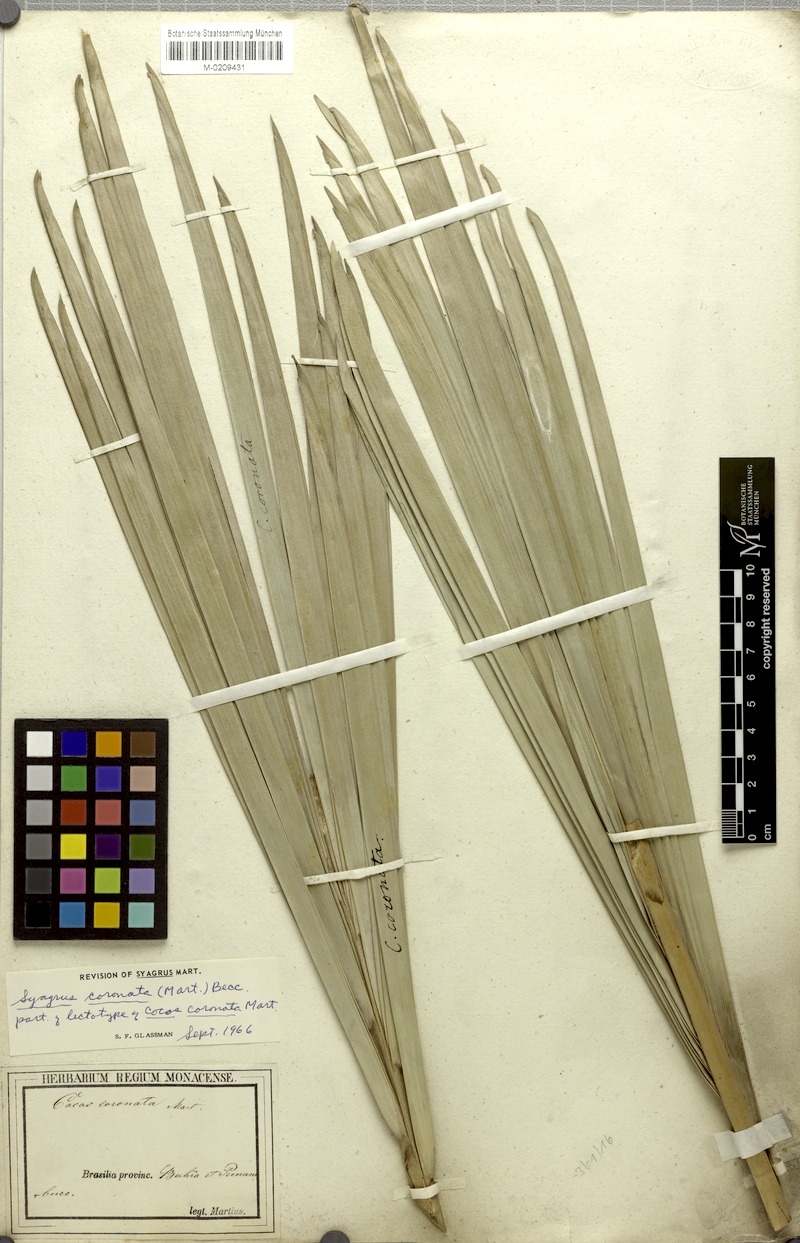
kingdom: Plantae
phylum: Tracheophyta
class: Liliopsida
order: Arecales
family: Arecaceae
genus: Syagrus
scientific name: Syagrus coronata
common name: Licuri palm
